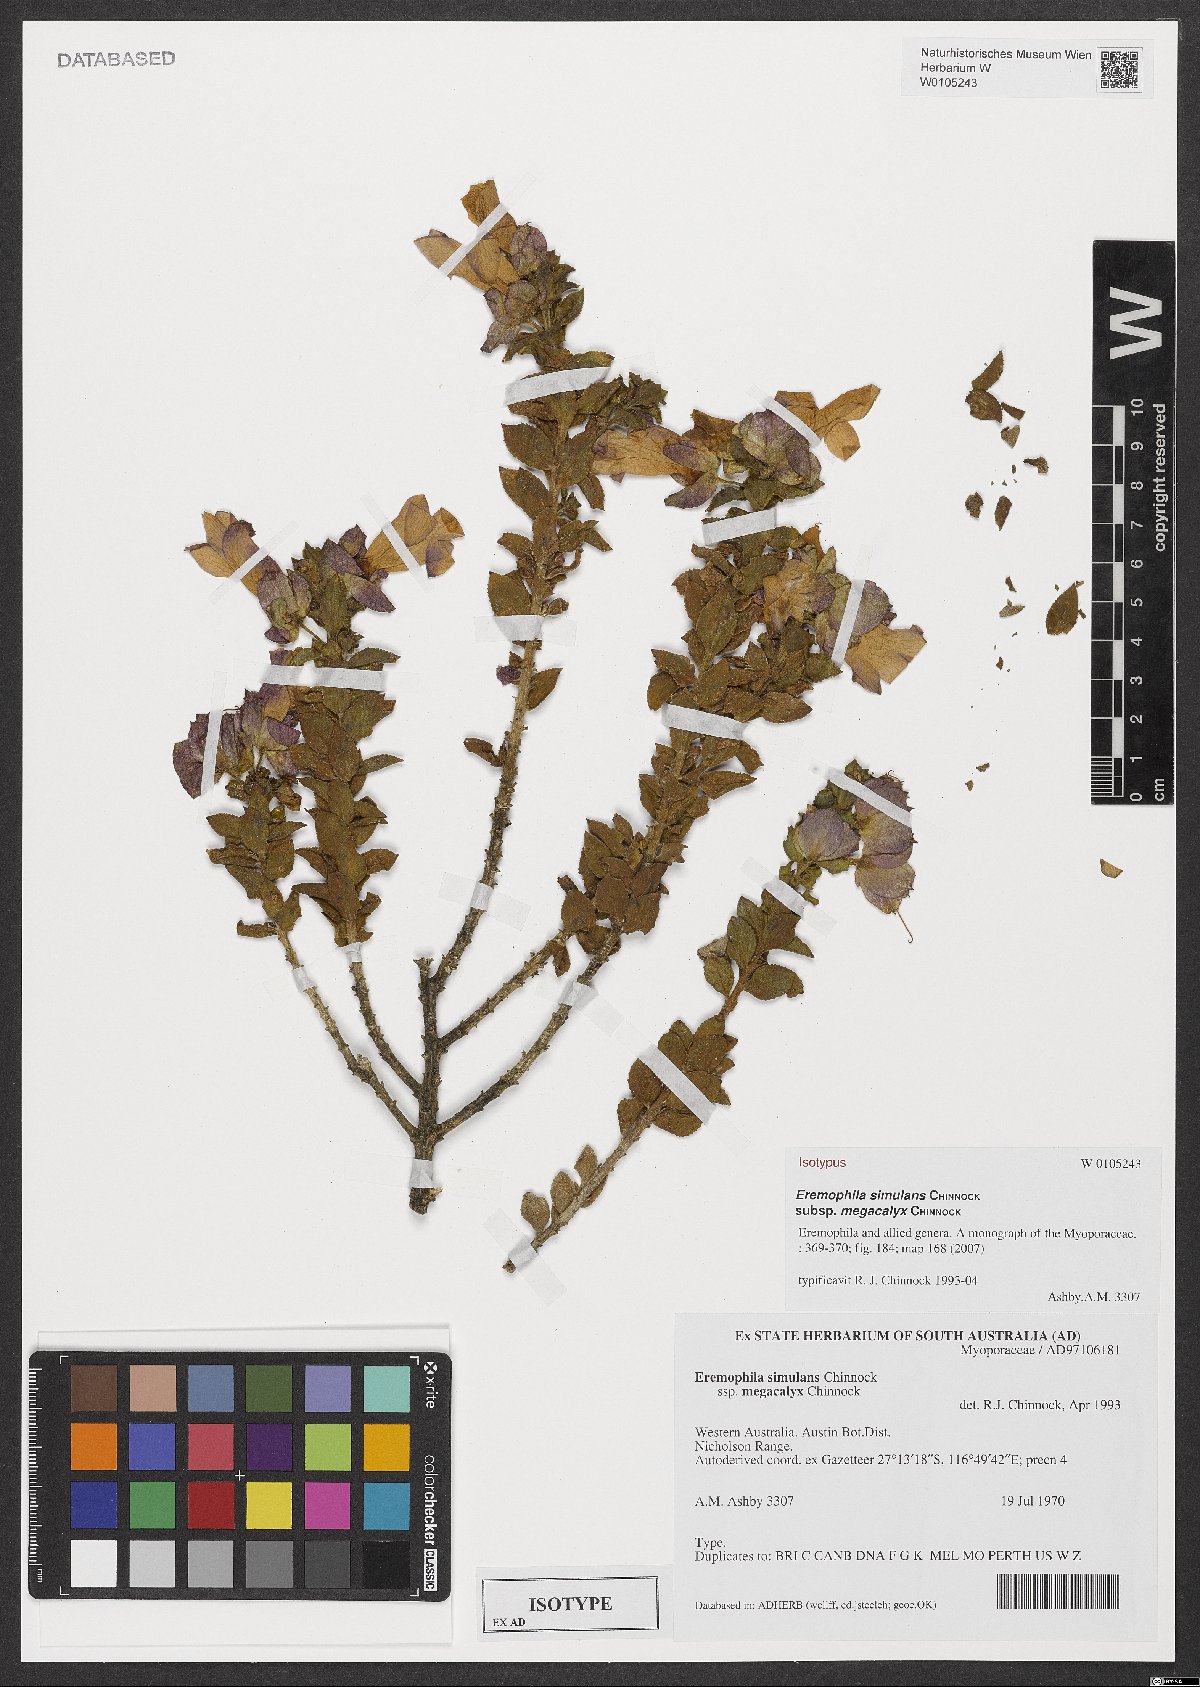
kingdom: Plantae
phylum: Tracheophyta
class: Magnoliopsida
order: Lamiales
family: Scrophulariaceae
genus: Eremophila
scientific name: Eremophila simulans
